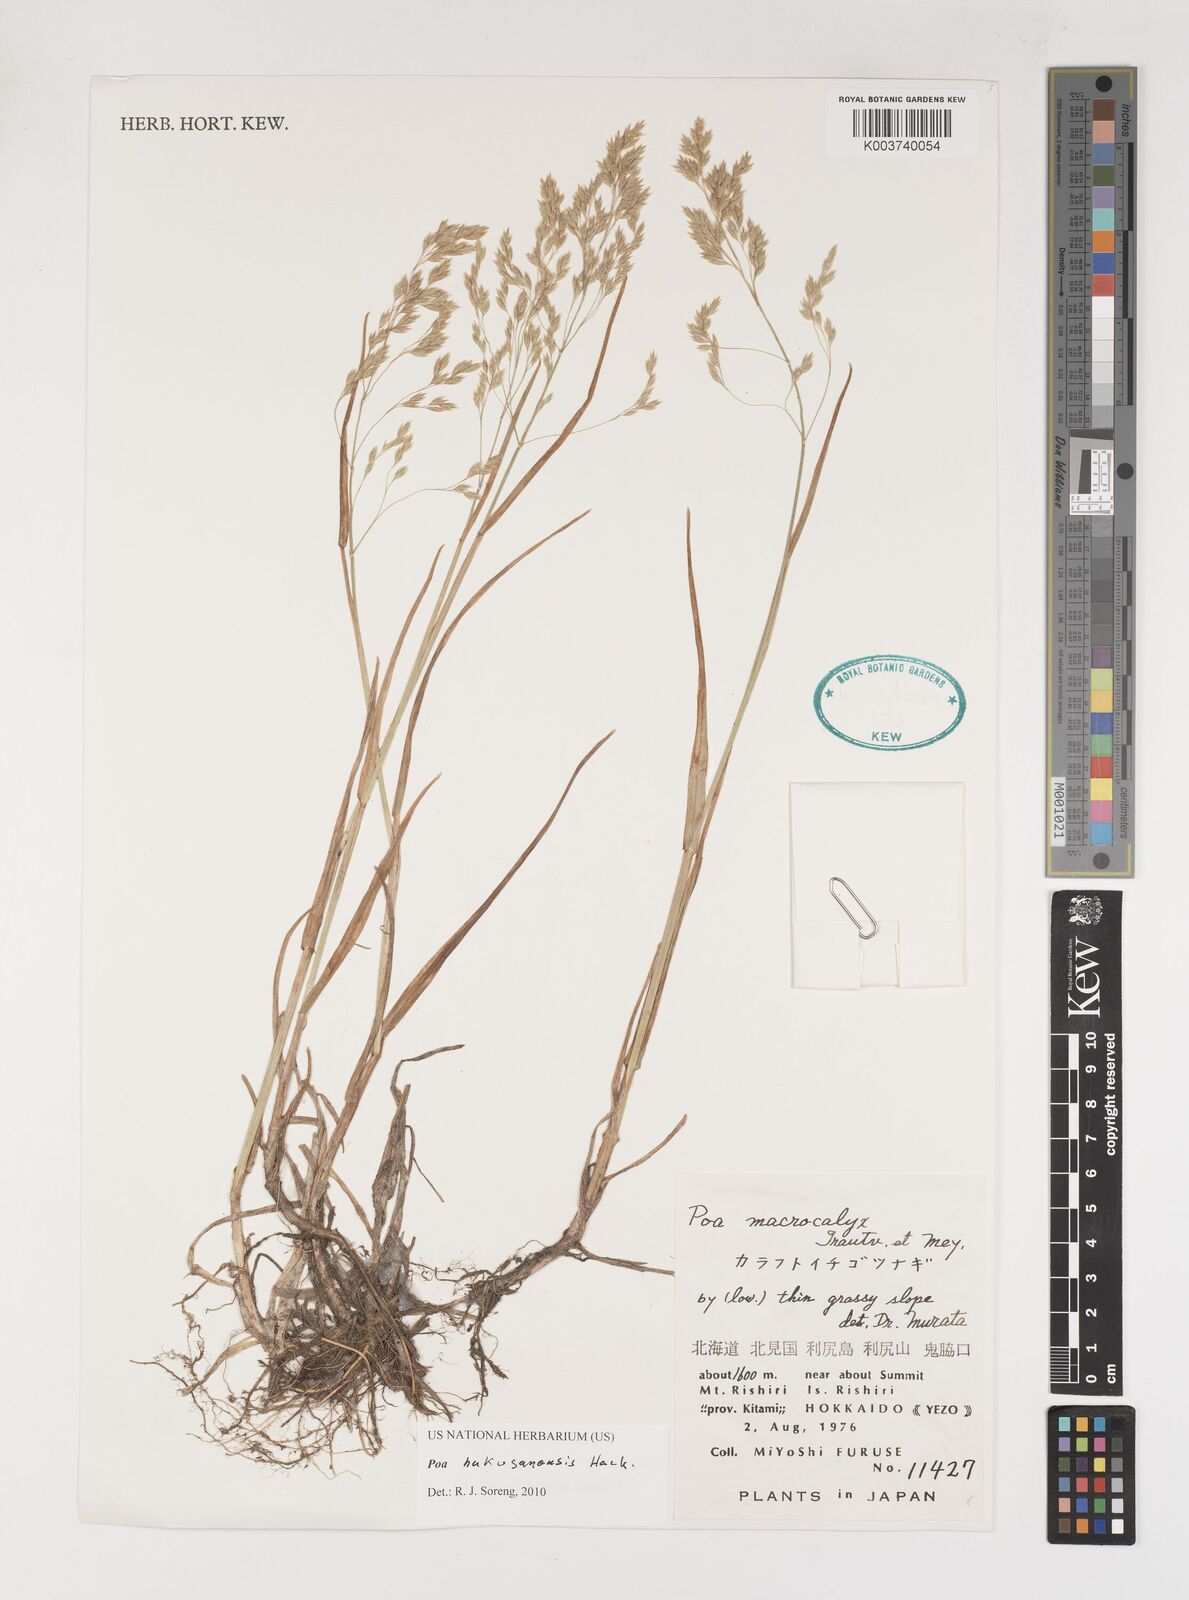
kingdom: Plantae
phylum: Tracheophyta
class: Liliopsida
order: Poales
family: Poaceae
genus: Poa
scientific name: Poa hakusanensis
